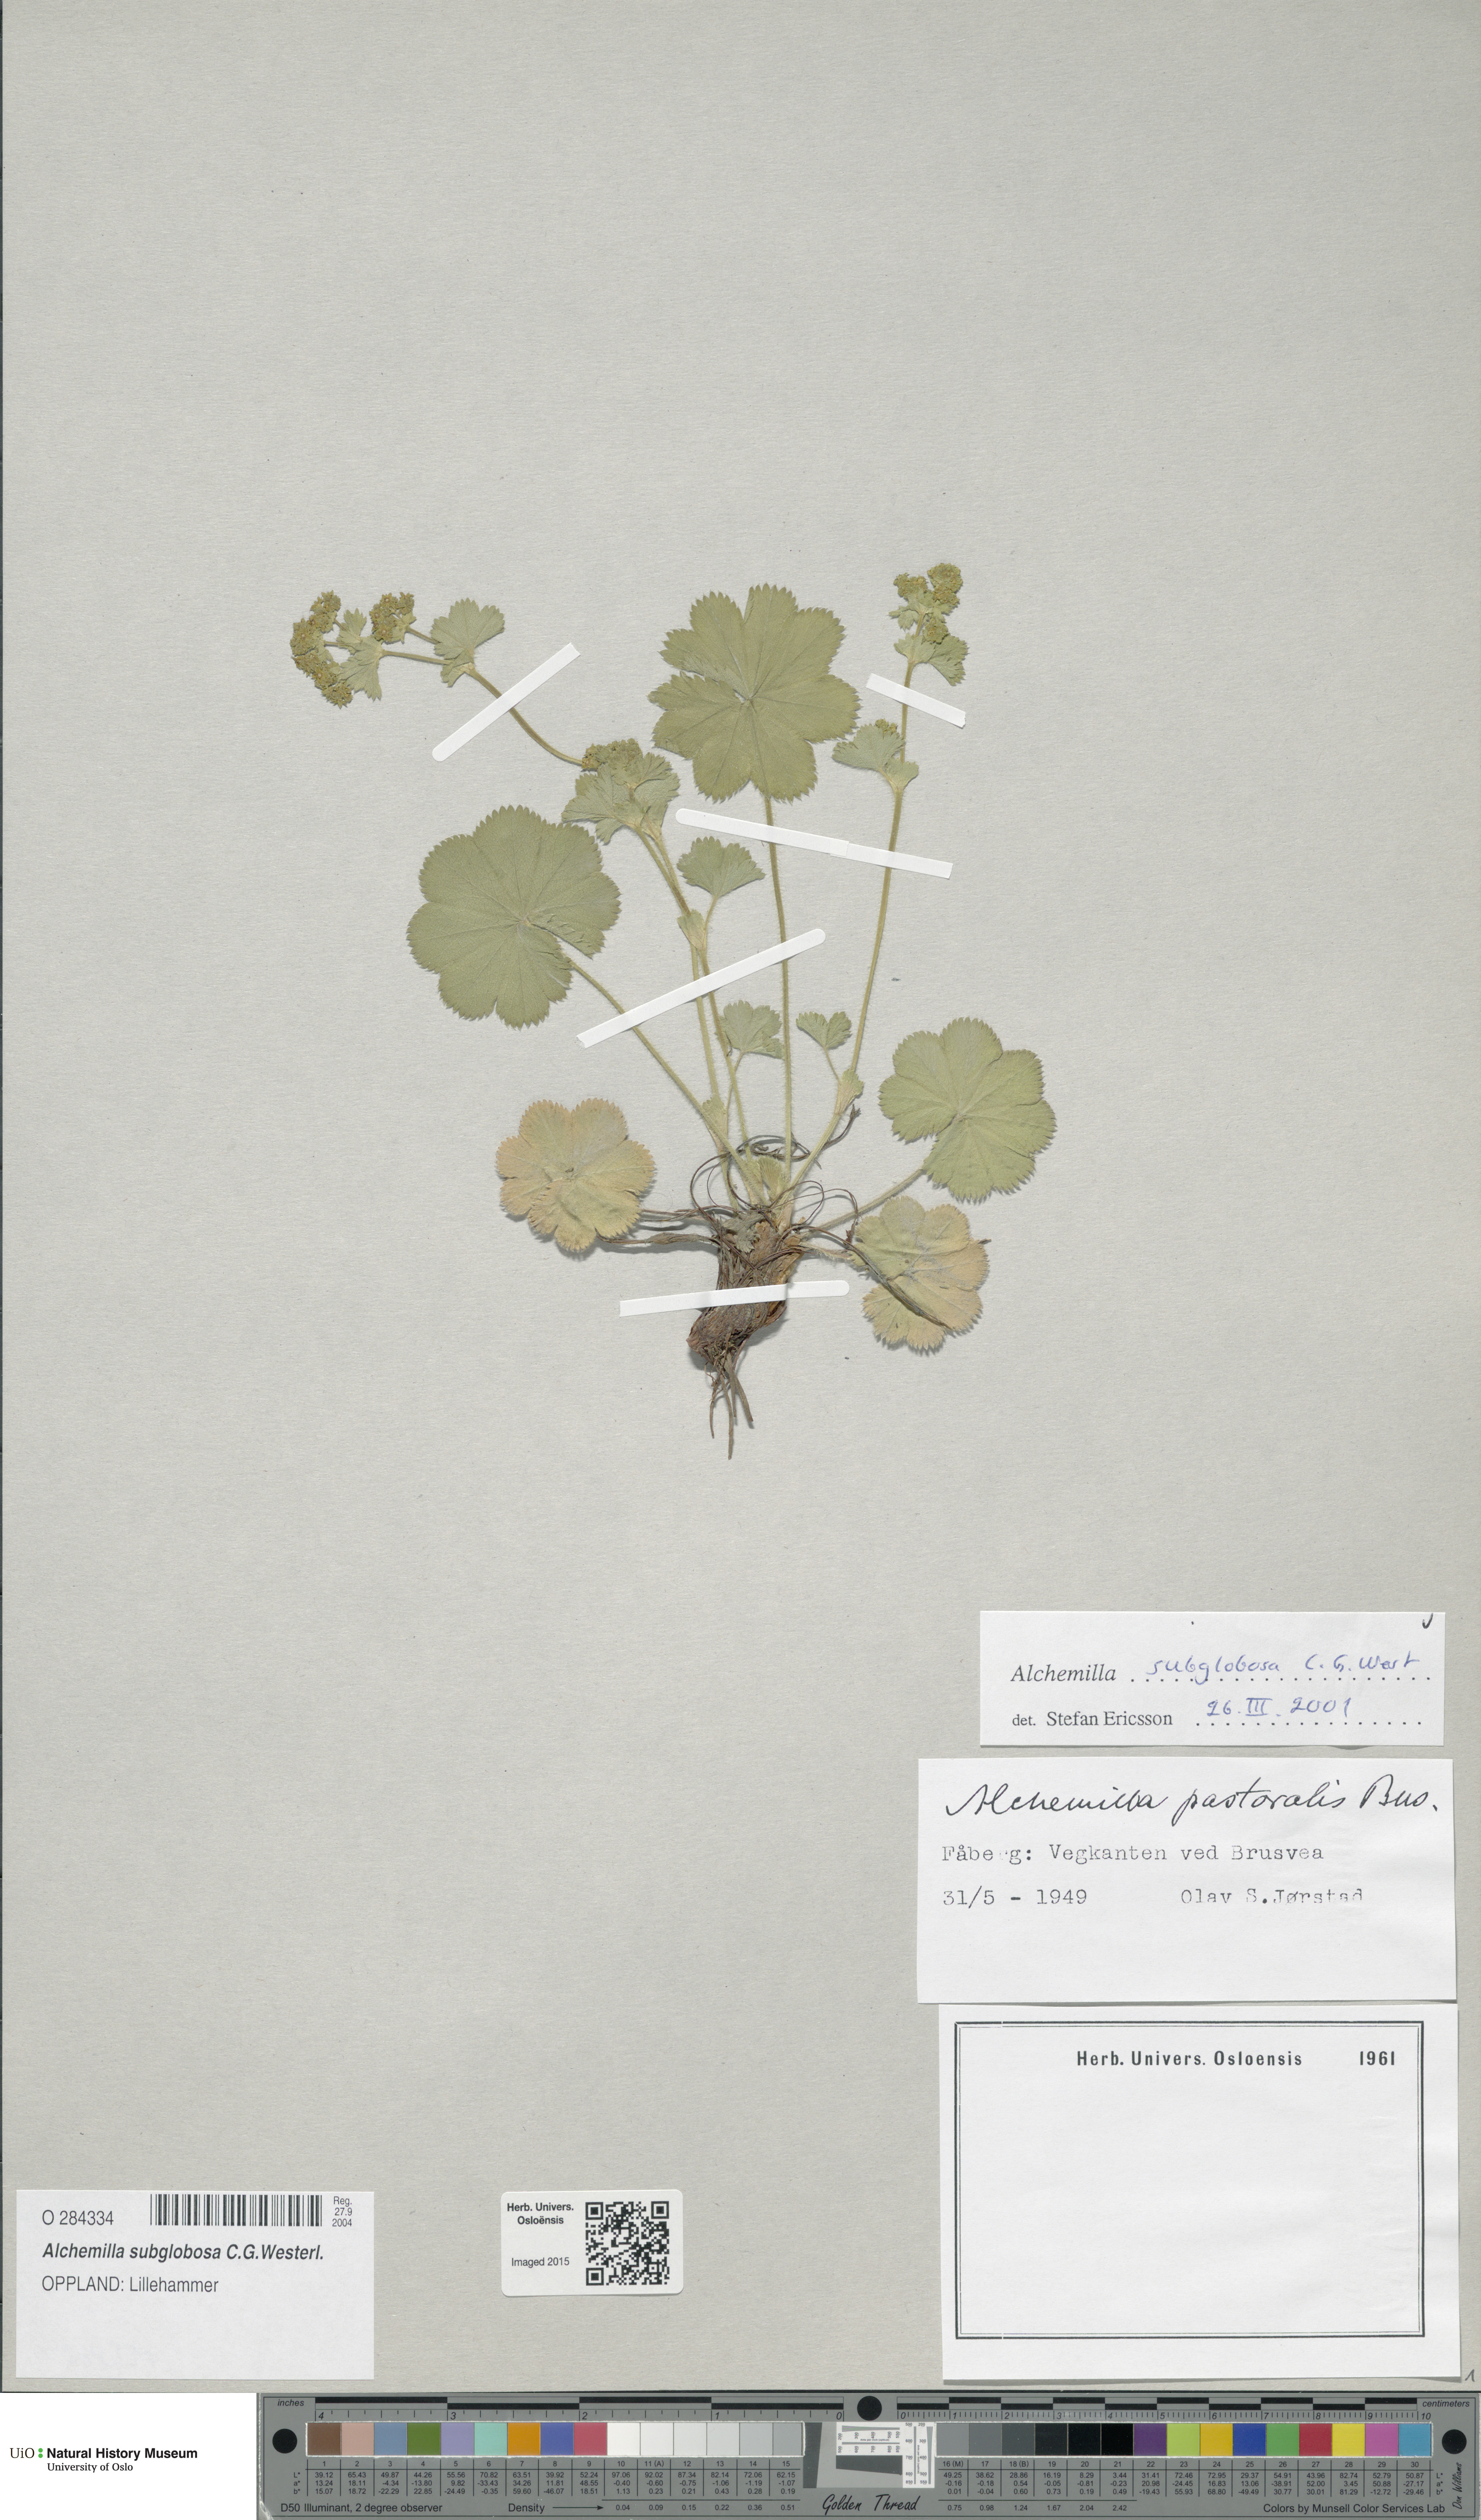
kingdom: Plantae
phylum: Tracheophyta
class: Magnoliopsida
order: Rosales
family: Rosaceae
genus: Alchemilla
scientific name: Alchemilla subglobosa
